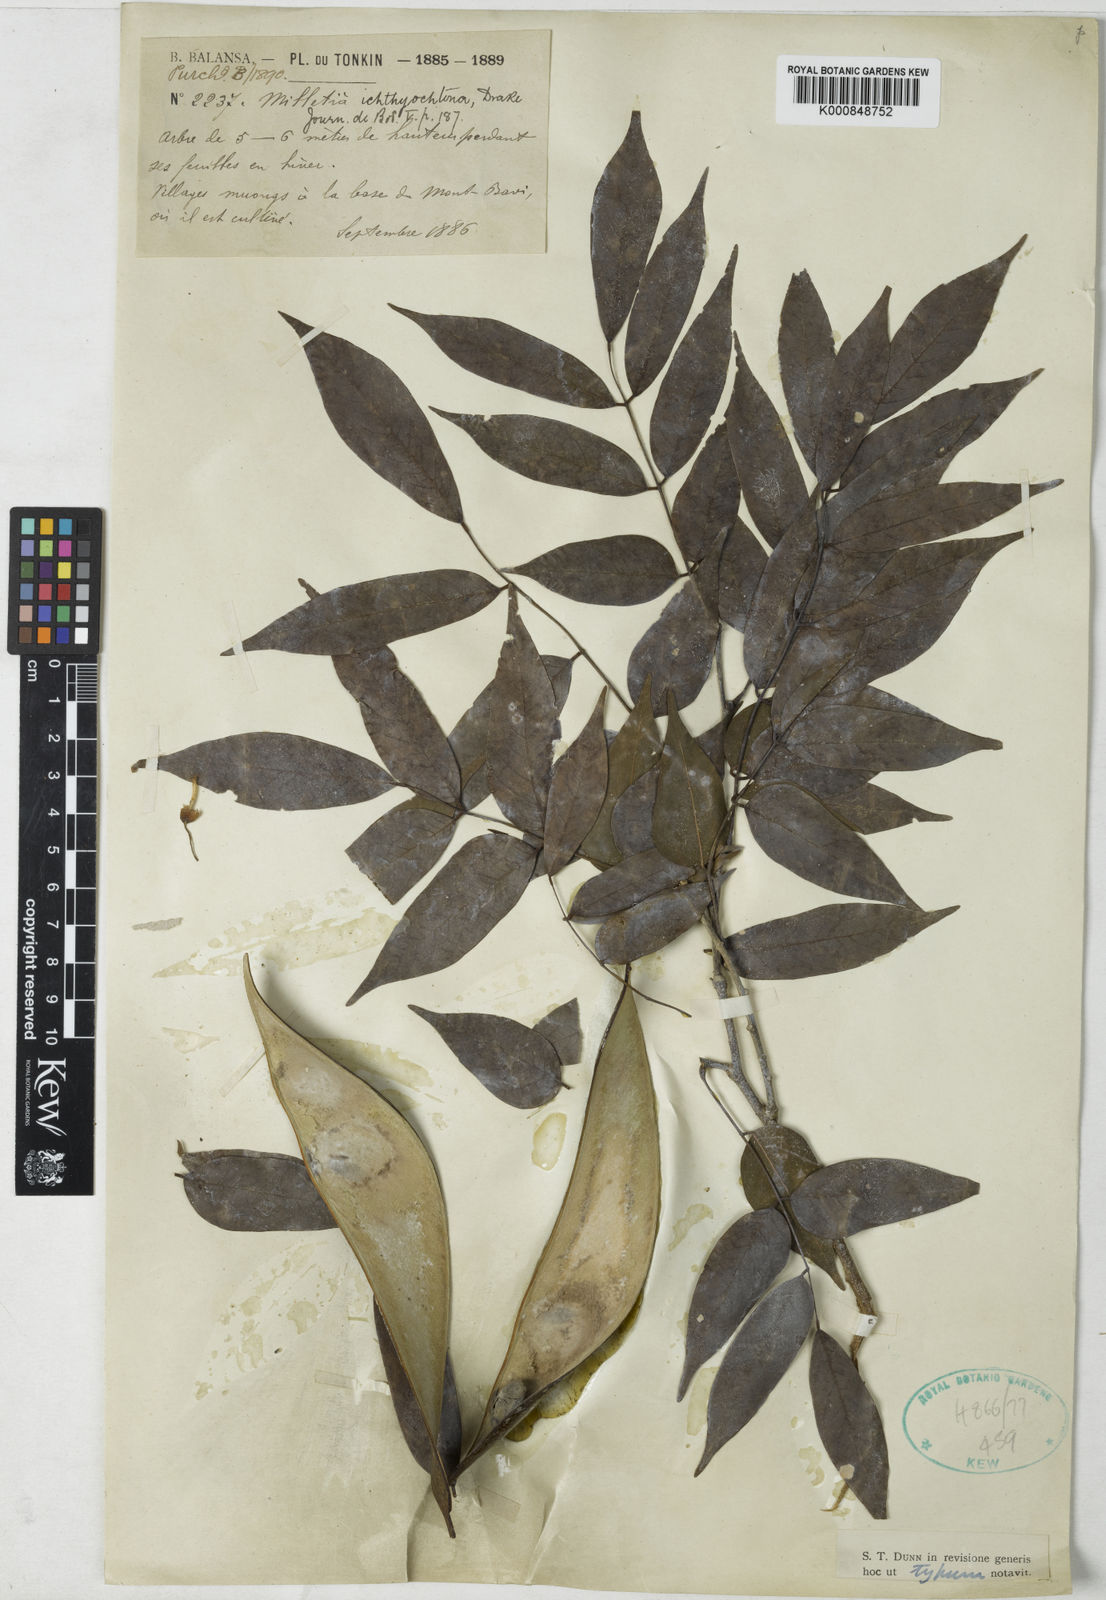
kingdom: Plantae
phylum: Tracheophyta
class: Magnoliopsida
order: Fabales
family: Fabaceae
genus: Millettia
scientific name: Millettia ichthyochtona
